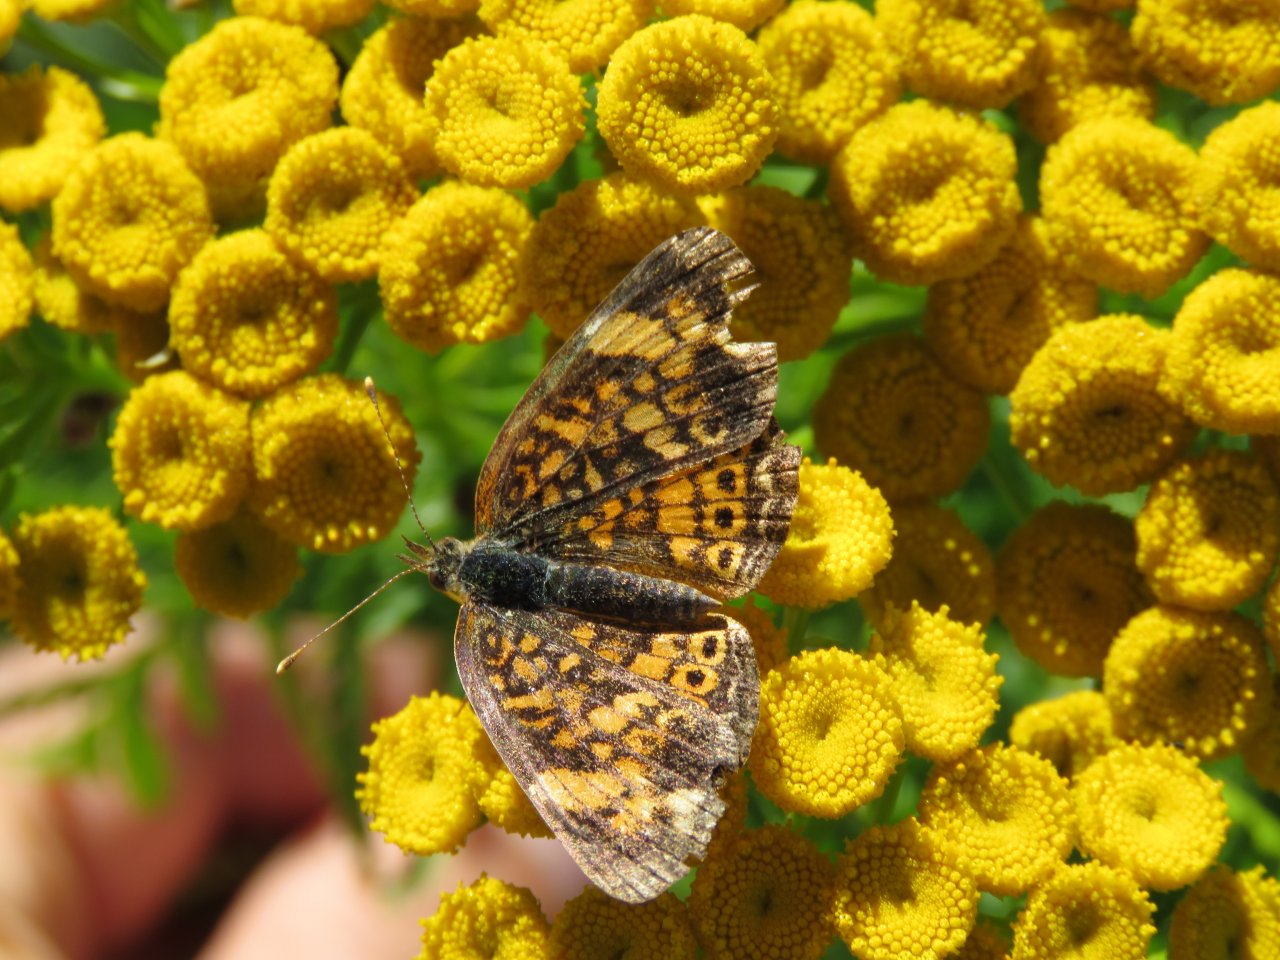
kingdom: Animalia
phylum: Arthropoda
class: Insecta
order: Lepidoptera
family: Nymphalidae
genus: Phyciodes
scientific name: Phyciodes
